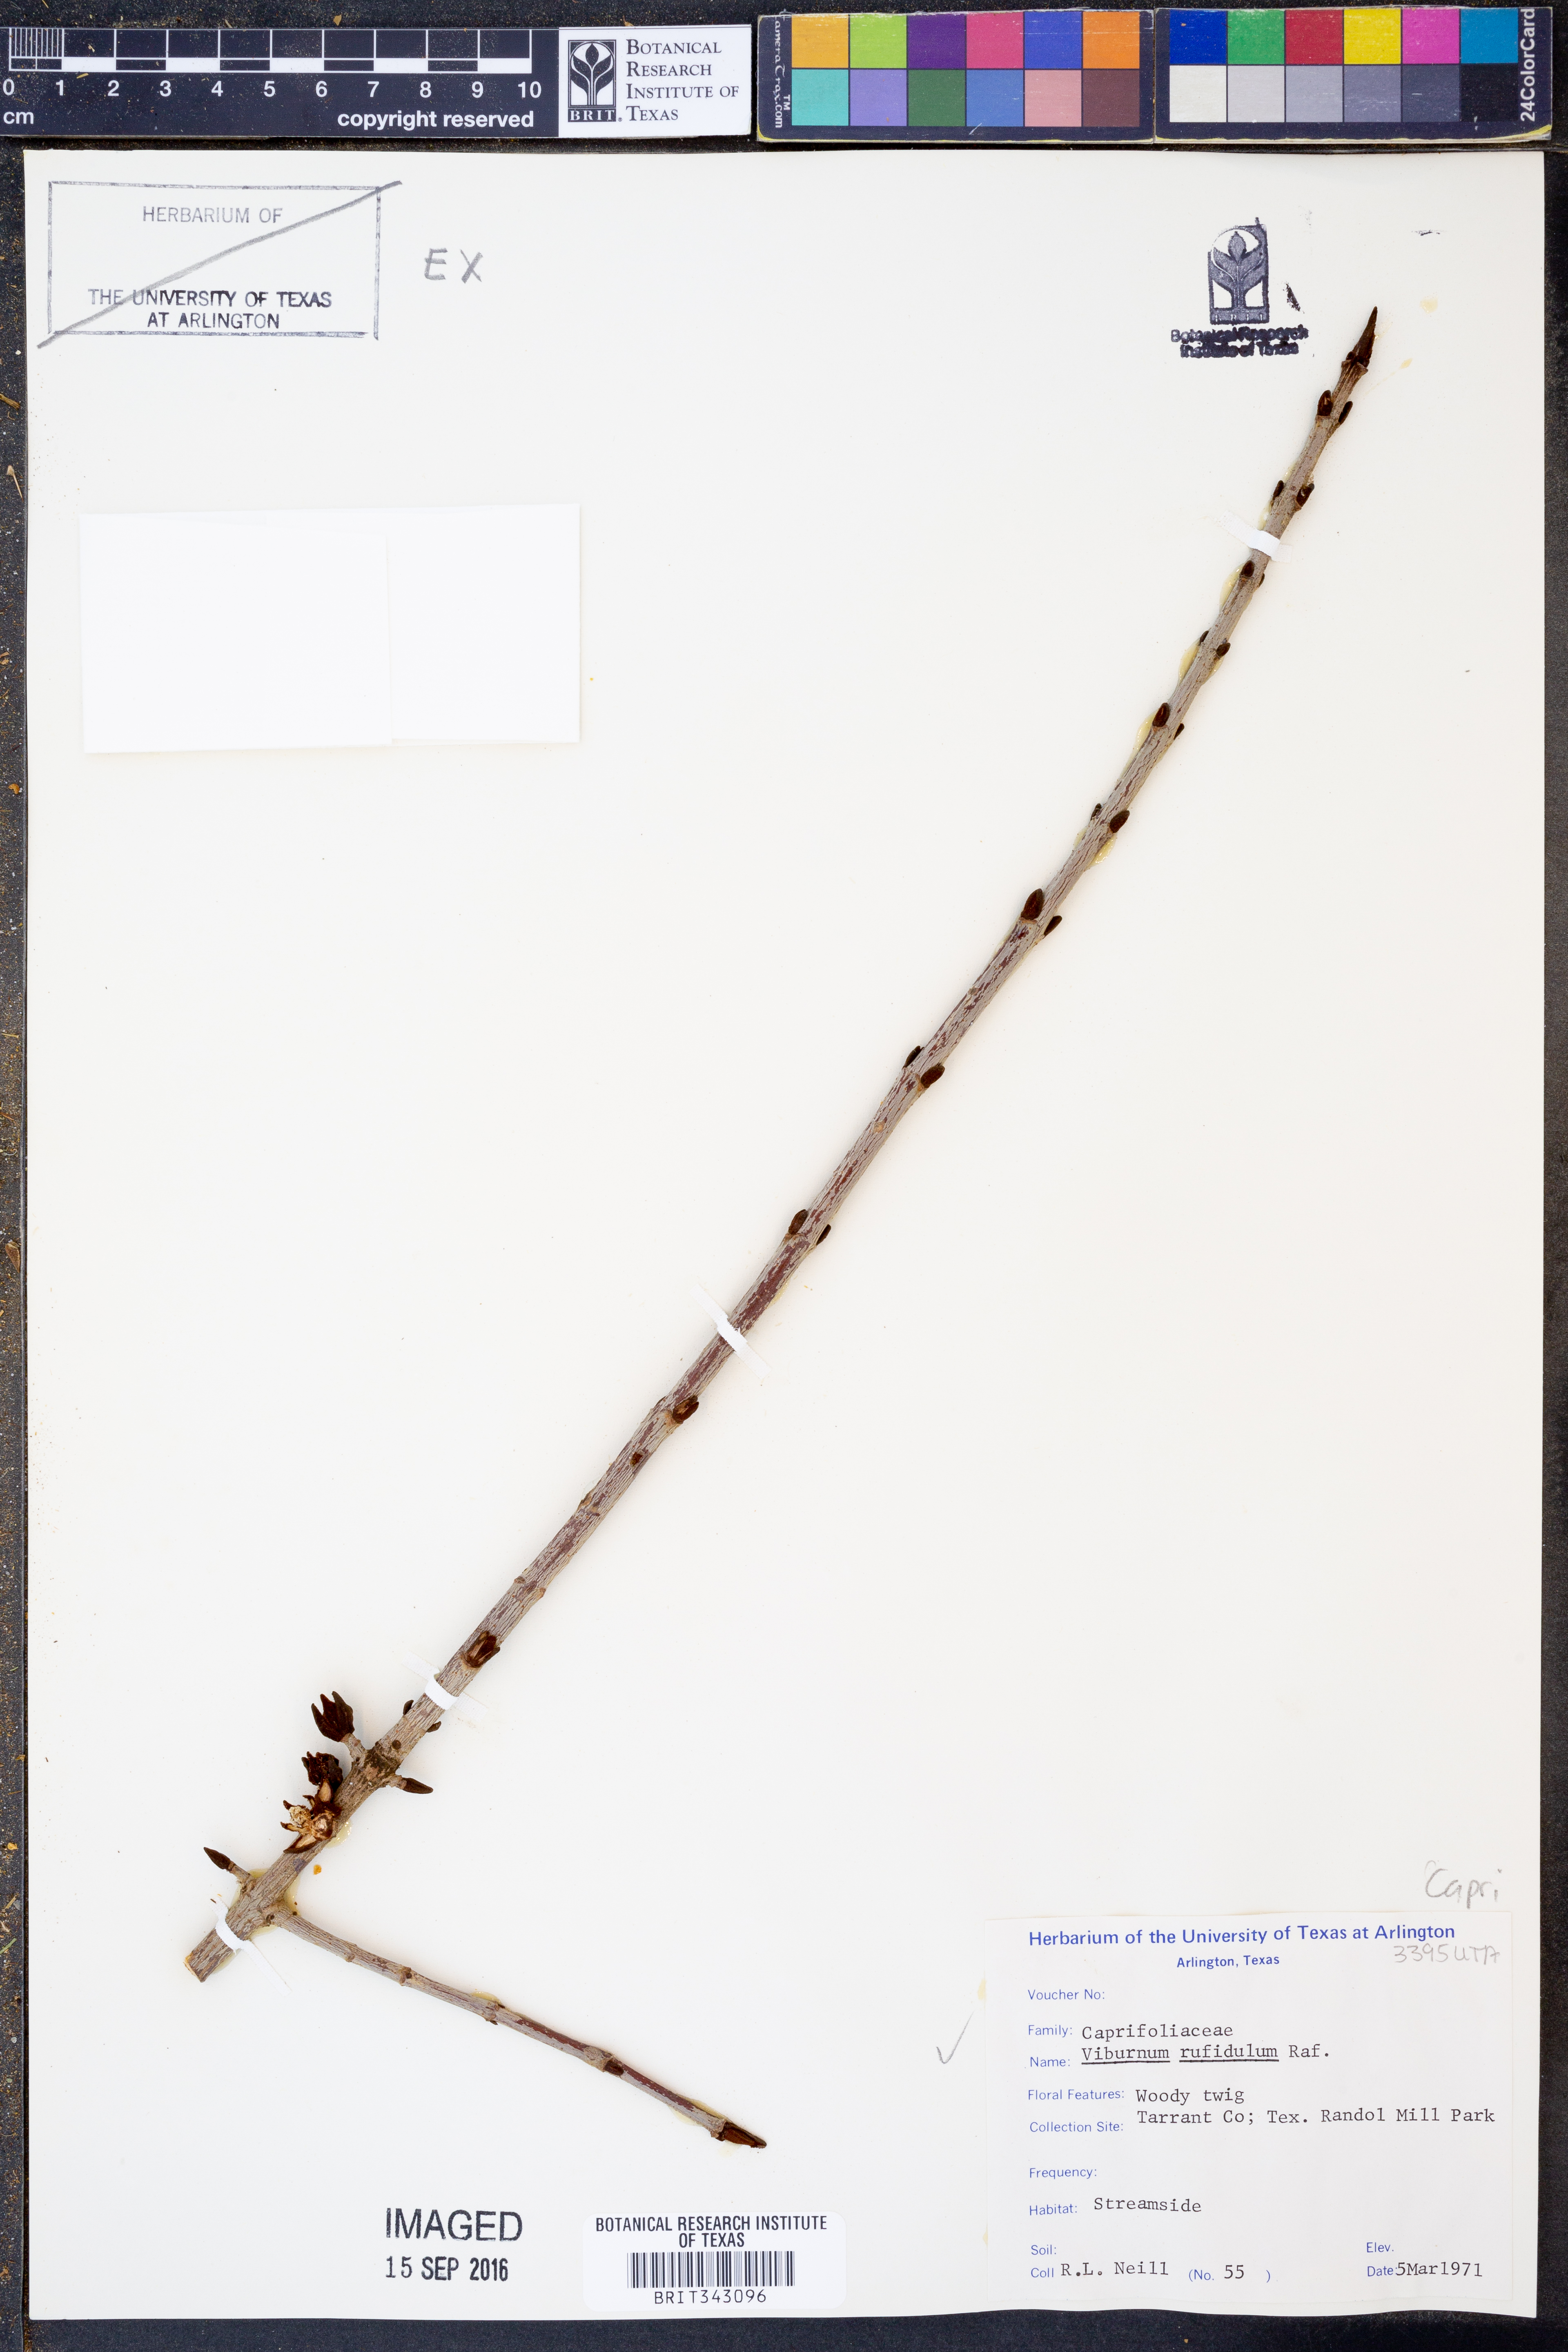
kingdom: Plantae
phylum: Tracheophyta
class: Magnoliopsida
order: Dipsacales
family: Viburnaceae
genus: Viburnum
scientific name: Viburnum rufidulum
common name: Blue haw
